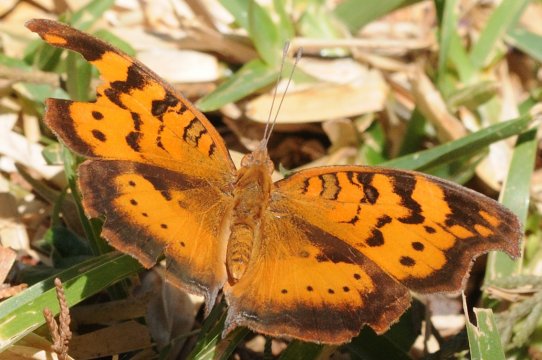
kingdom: Animalia
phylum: Arthropoda
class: Insecta
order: Lepidoptera
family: Nymphalidae
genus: Junonia
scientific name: Junonia antilope
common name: Darker Commodore
